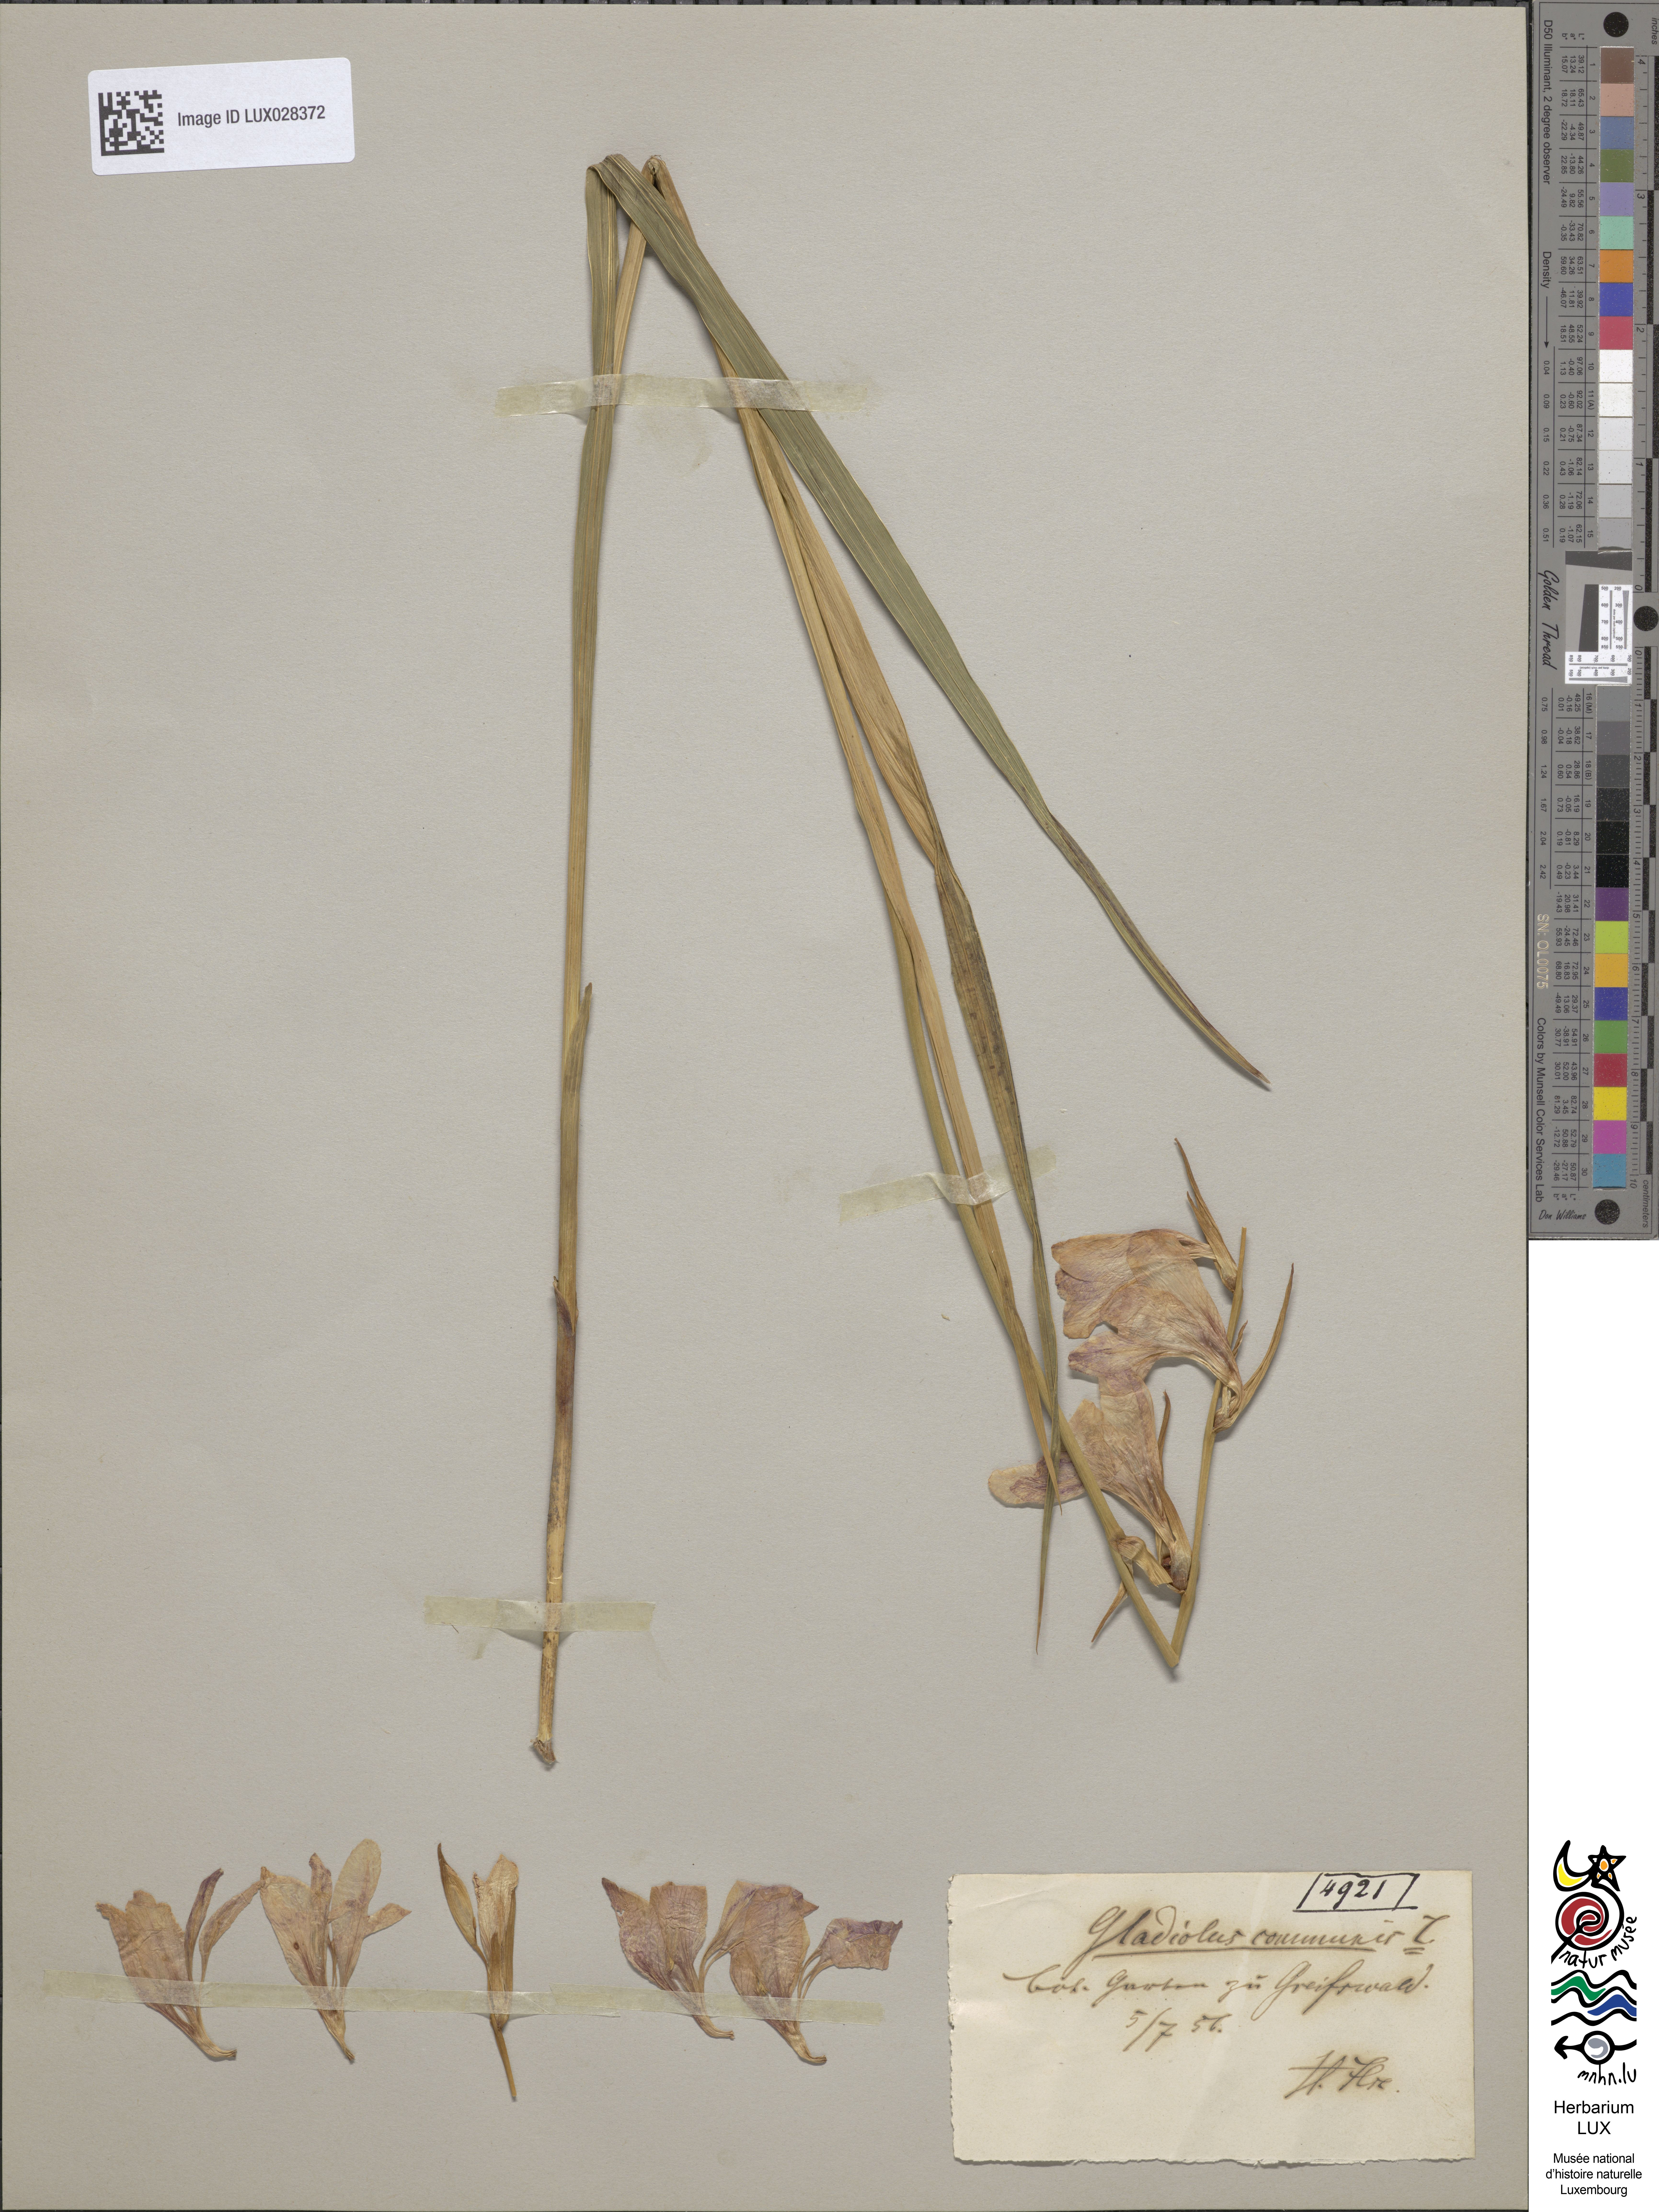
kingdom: Plantae
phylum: Tracheophyta
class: Liliopsida
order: Asparagales
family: Iridaceae
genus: Gladiolus
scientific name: Gladiolus communis
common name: Eastern gladiolus
